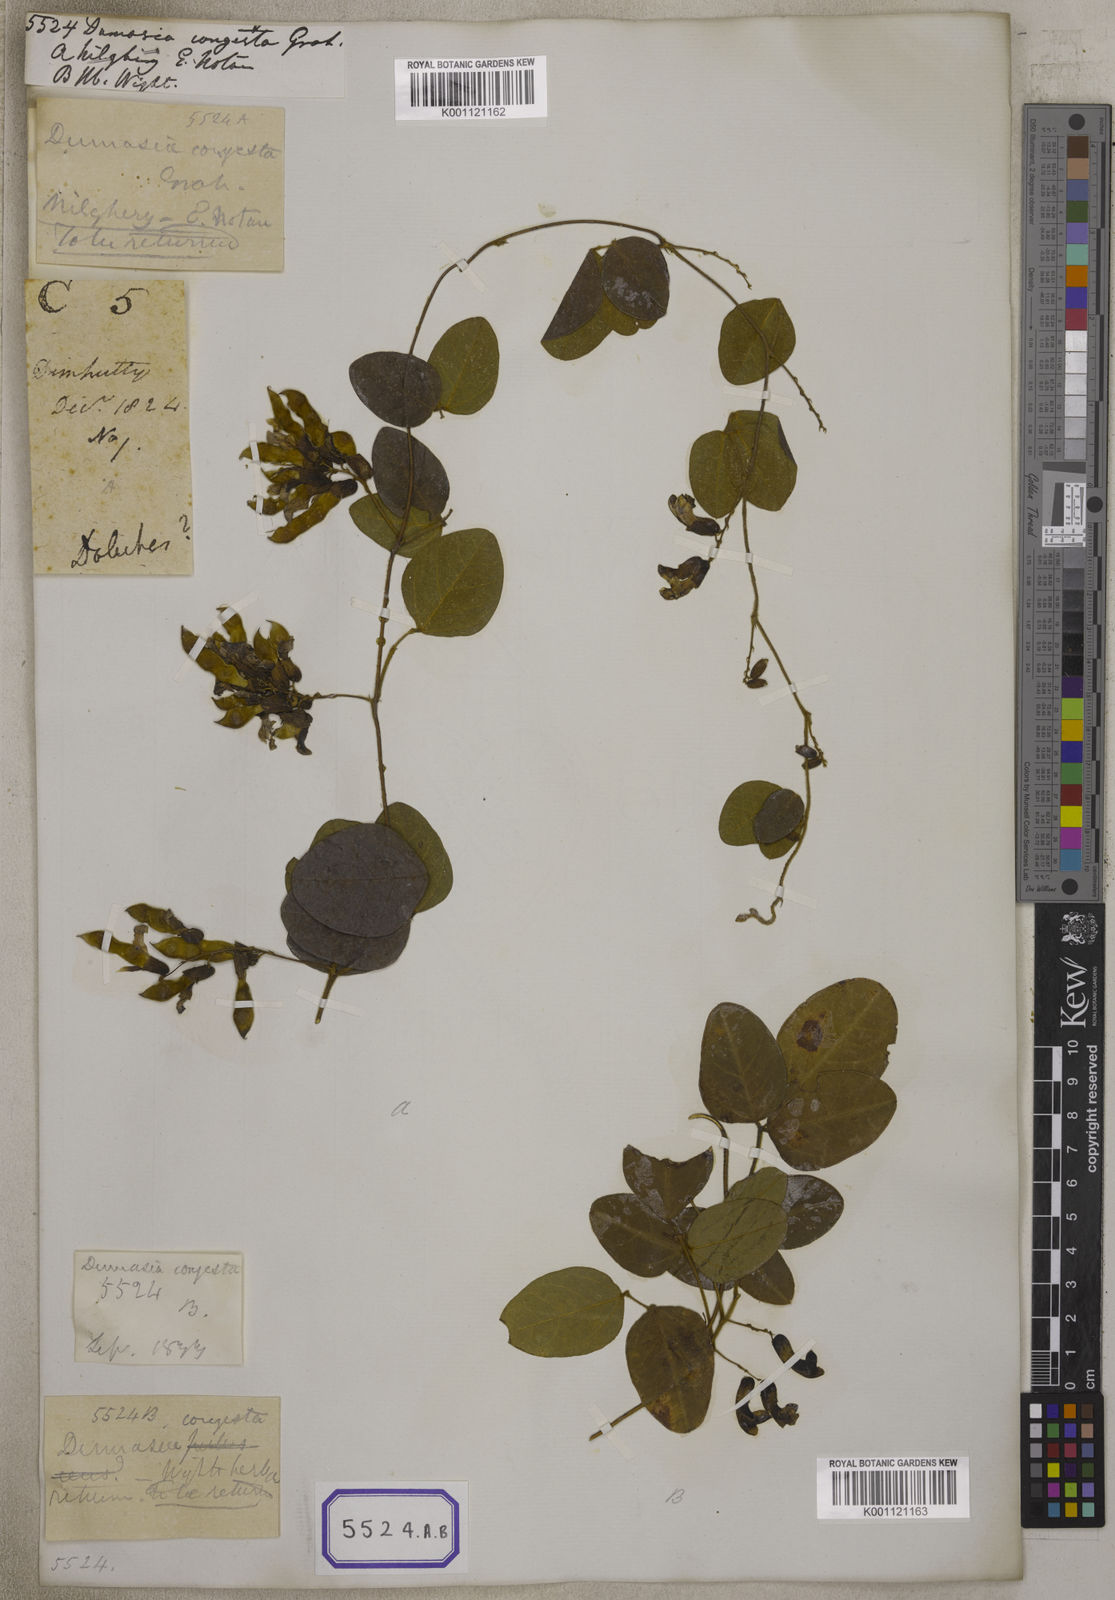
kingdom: Plantae
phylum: Tracheophyta
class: Magnoliopsida
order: Fabales
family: Fabaceae
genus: Dumasia
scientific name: Dumasia
